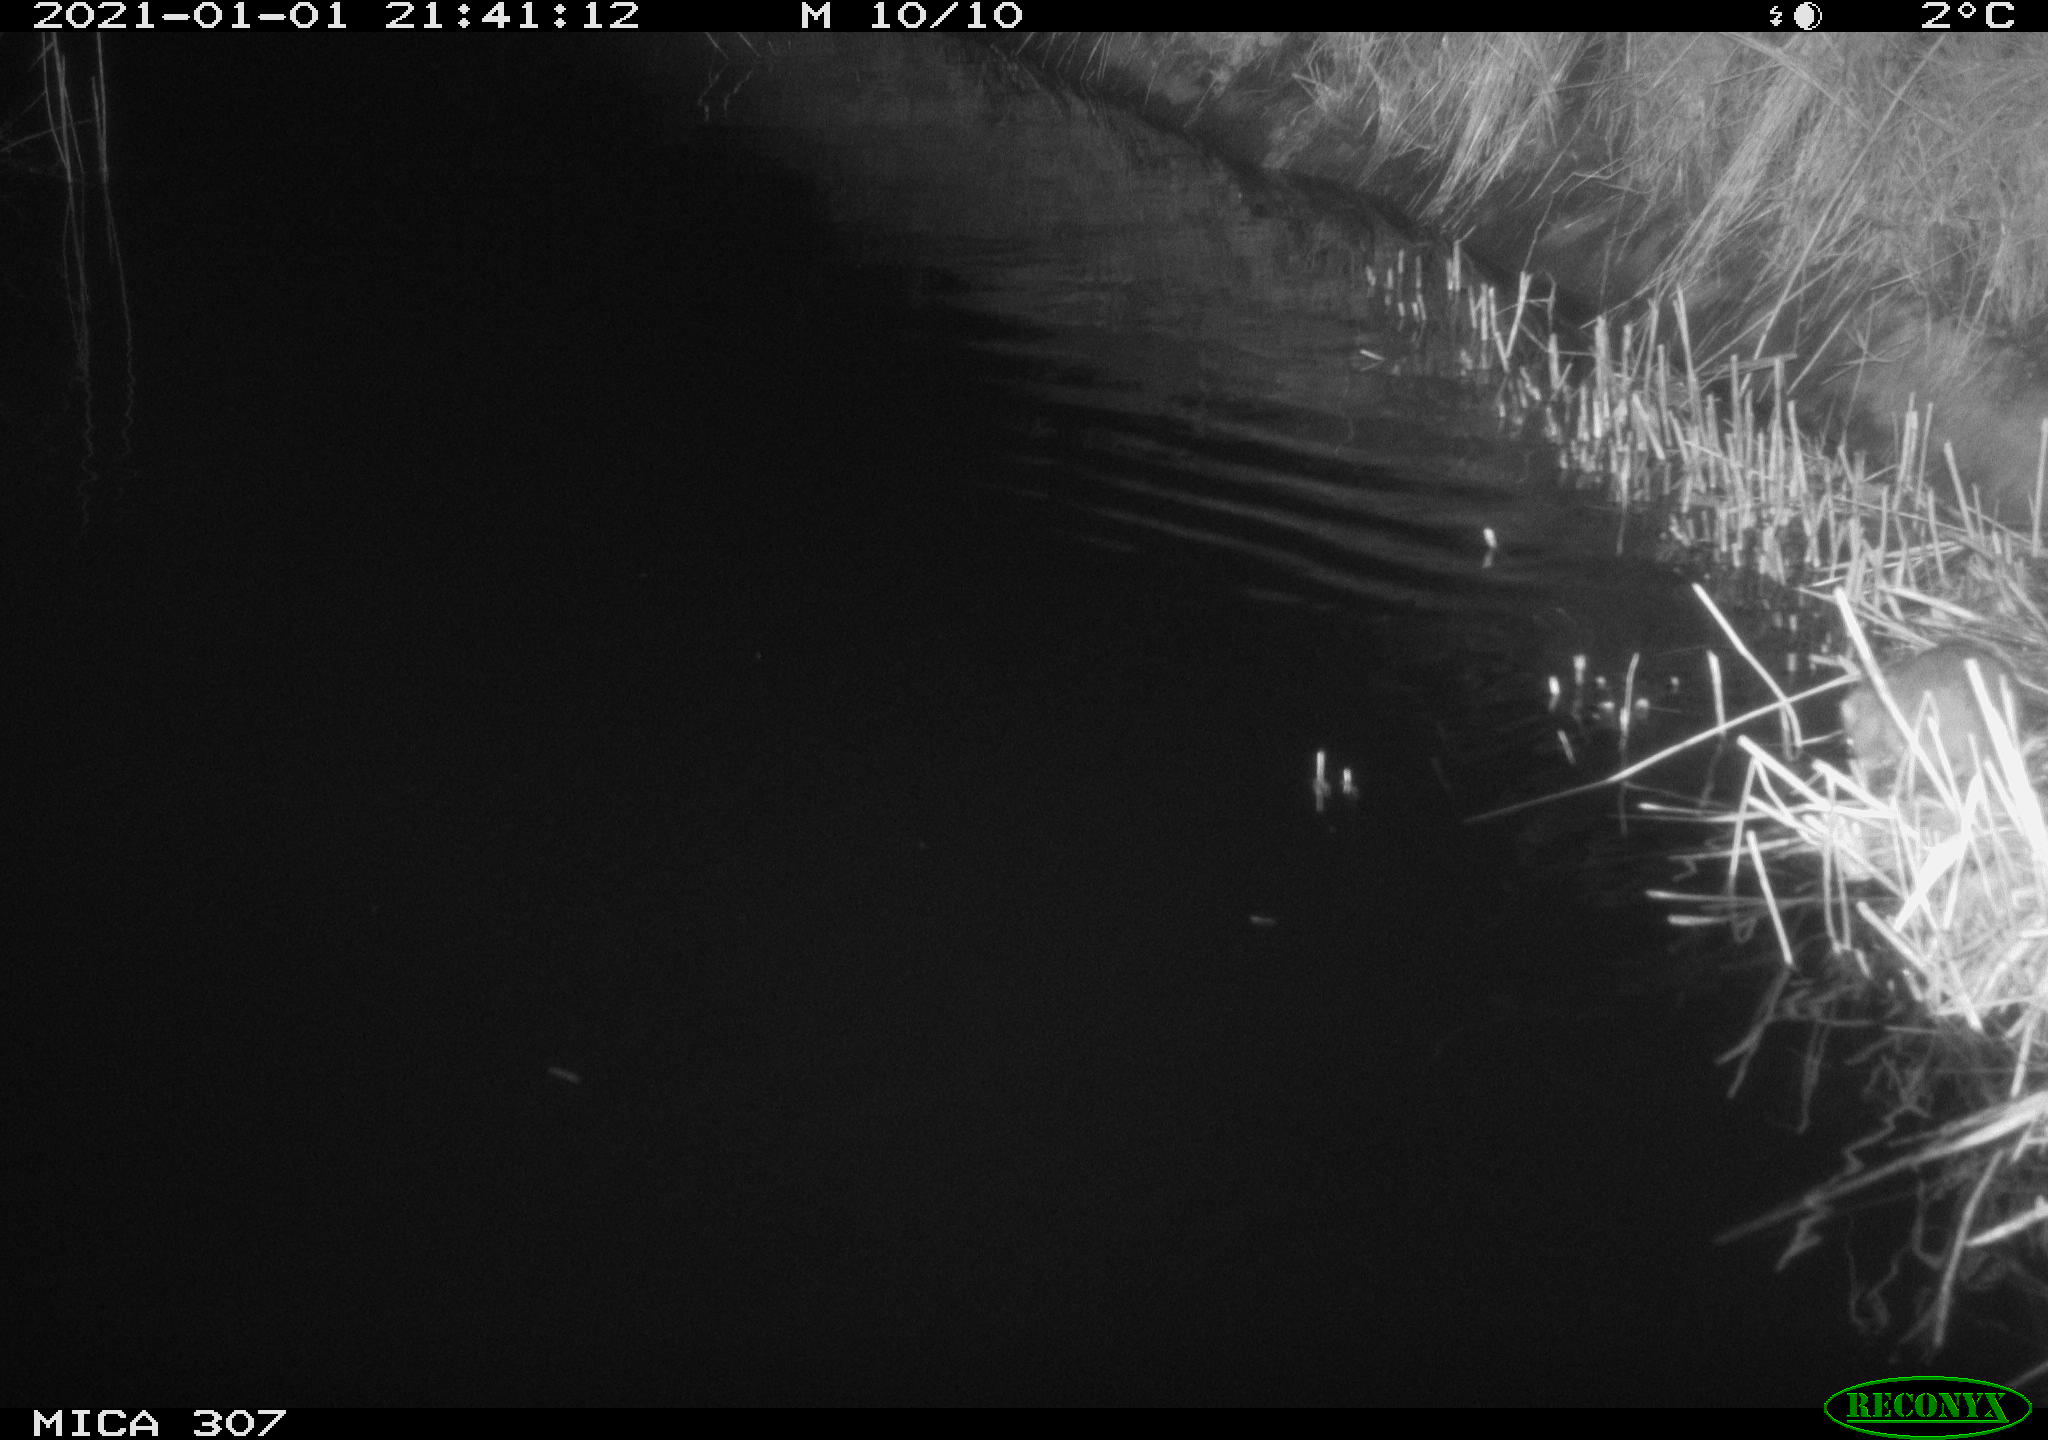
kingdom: Animalia
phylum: Chordata
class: Mammalia
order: Rodentia
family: Muridae
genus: Rattus
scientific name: Rattus norvegicus
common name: Brown rat
